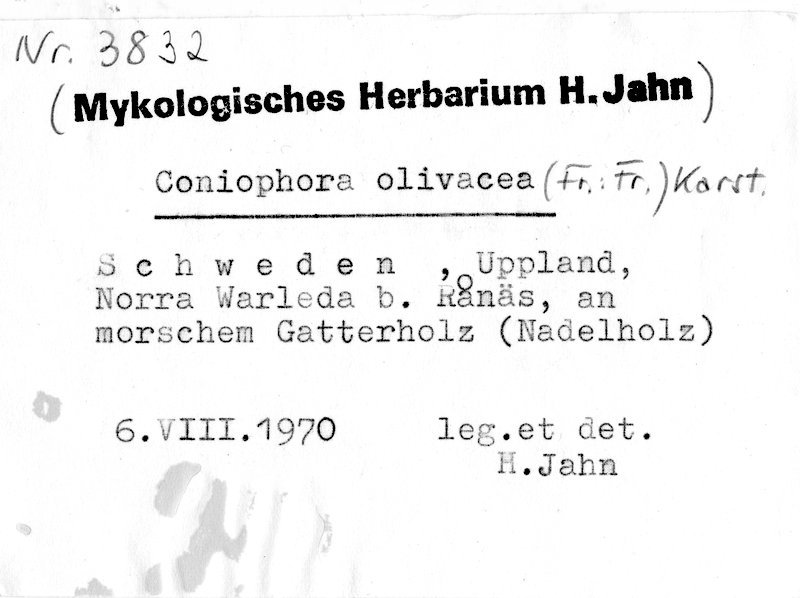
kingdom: Fungi
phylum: Basidiomycota
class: Agaricomycetes
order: Boletales
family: Coniophoraceae
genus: Coniophora
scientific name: Coniophora olivacea
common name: Olive duster
